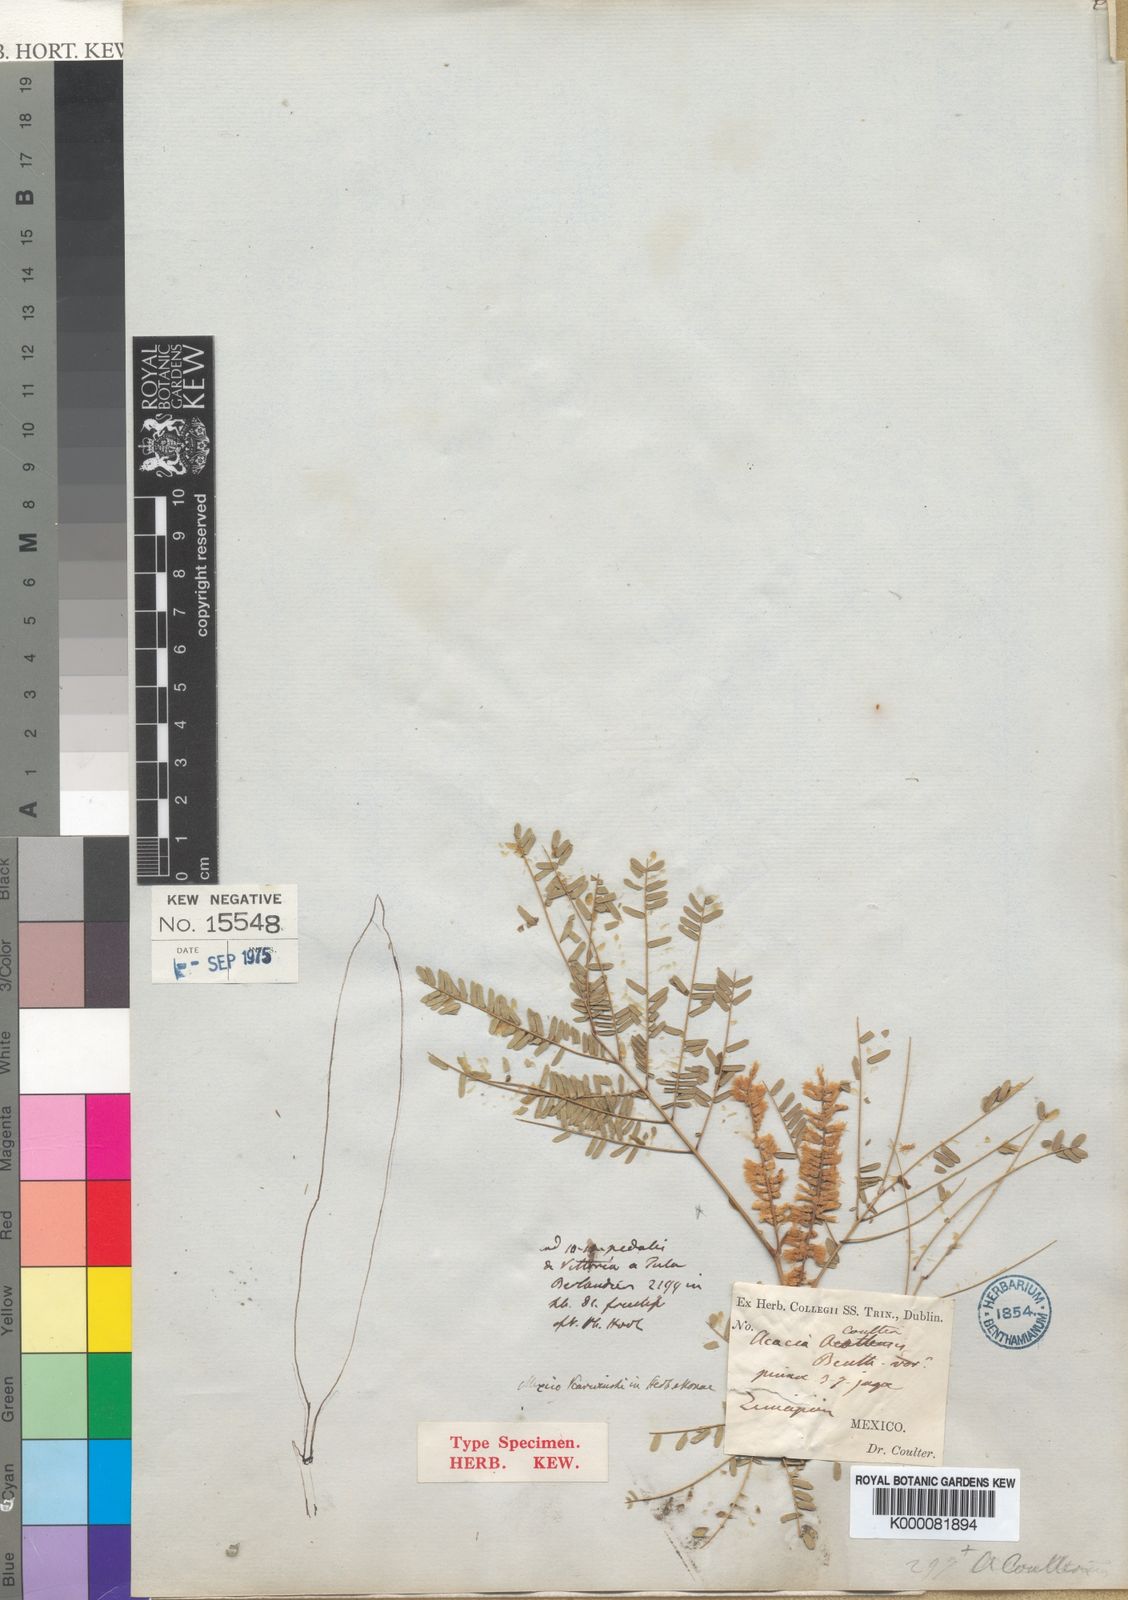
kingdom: Plantae
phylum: Tracheophyta
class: Magnoliopsida
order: Fabales
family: Fabaceae
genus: Acacia
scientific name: Acacia
